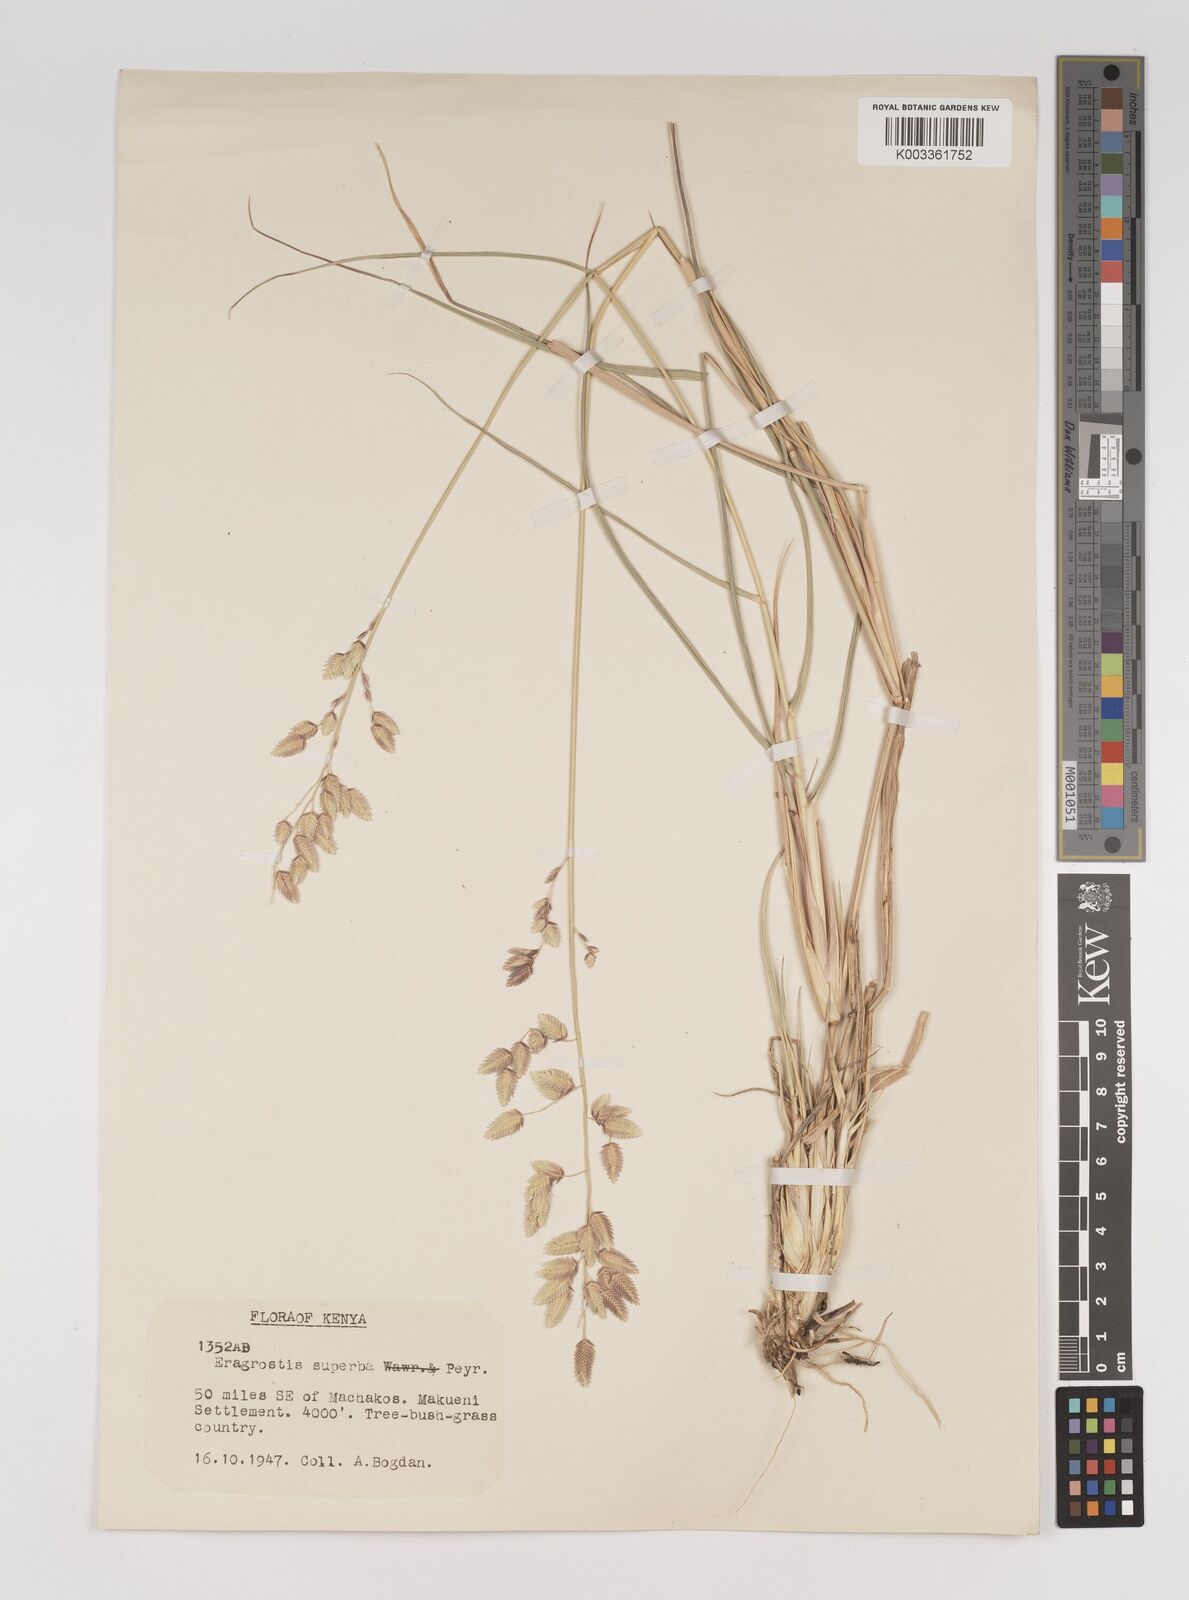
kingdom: Plantae
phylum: Tracheophyta
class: Liliopsida
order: Poales
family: Poaceae
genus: Eragrostis
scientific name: Eragrostis superba
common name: Wilman lovegrass
